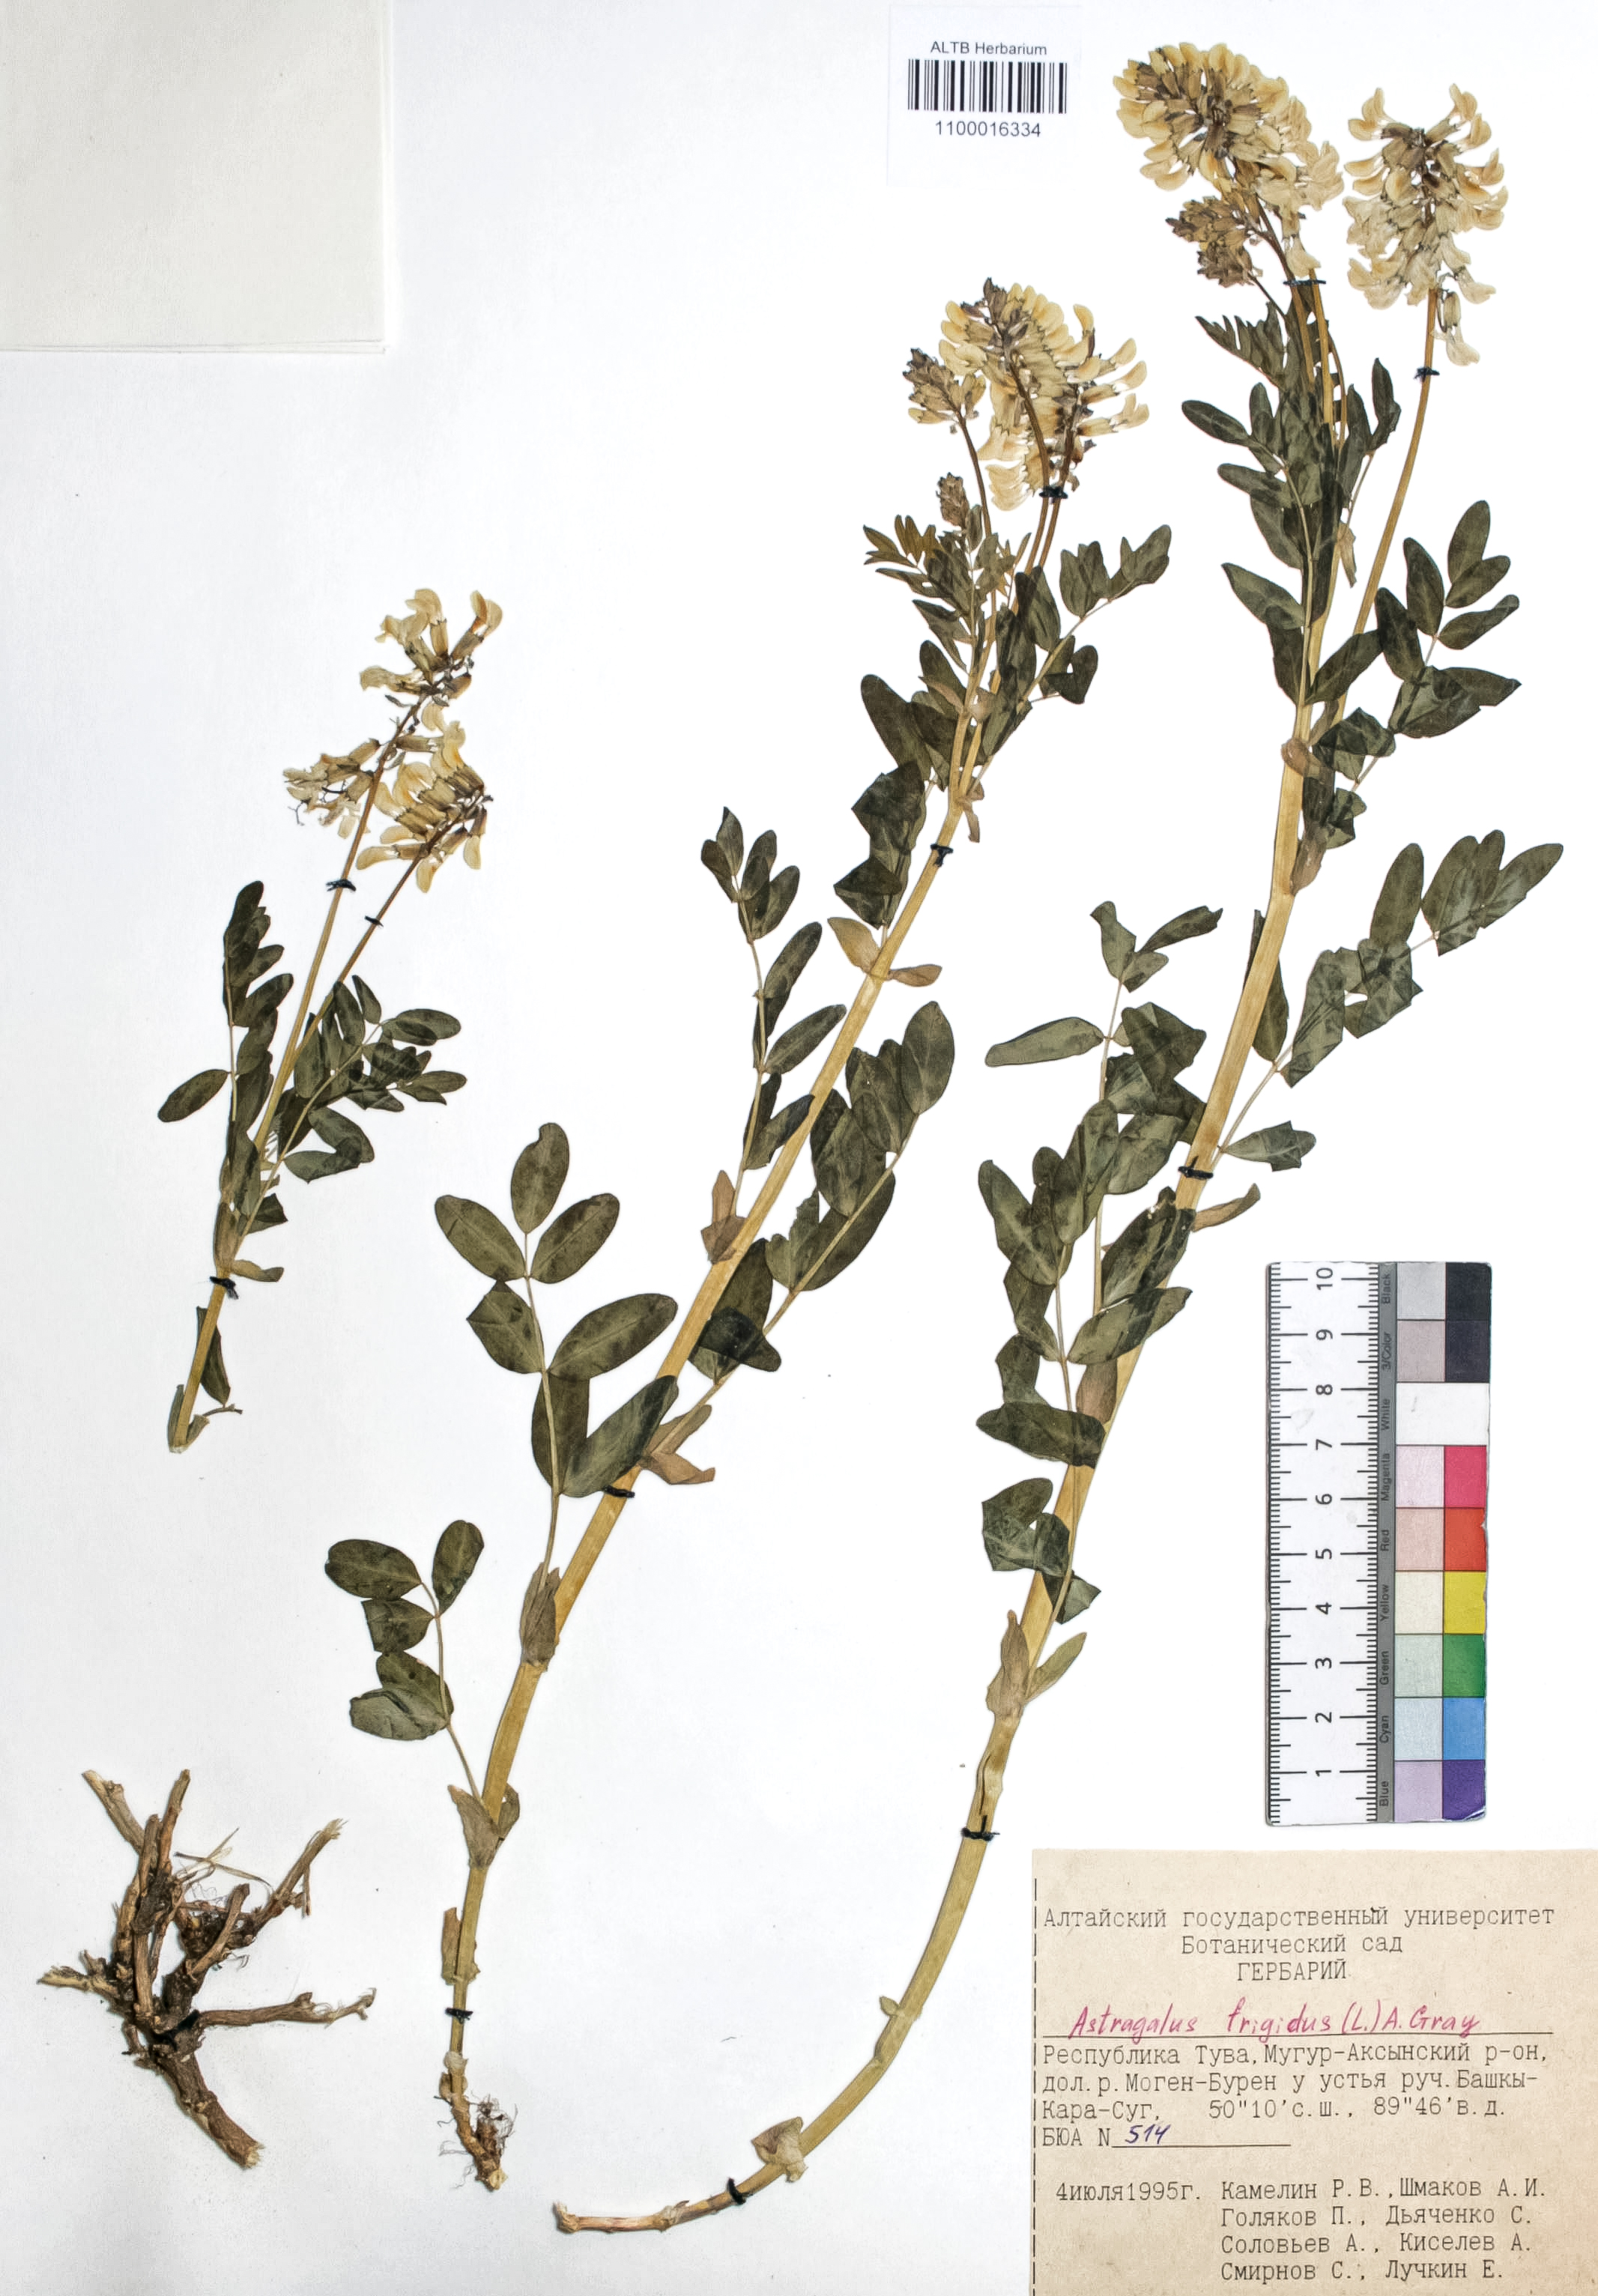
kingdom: Plantae
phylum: Tracheophyta
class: Magnoliopsida
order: Fabales
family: Fabaceae
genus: Astragalus
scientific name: Astragalus frigidus
